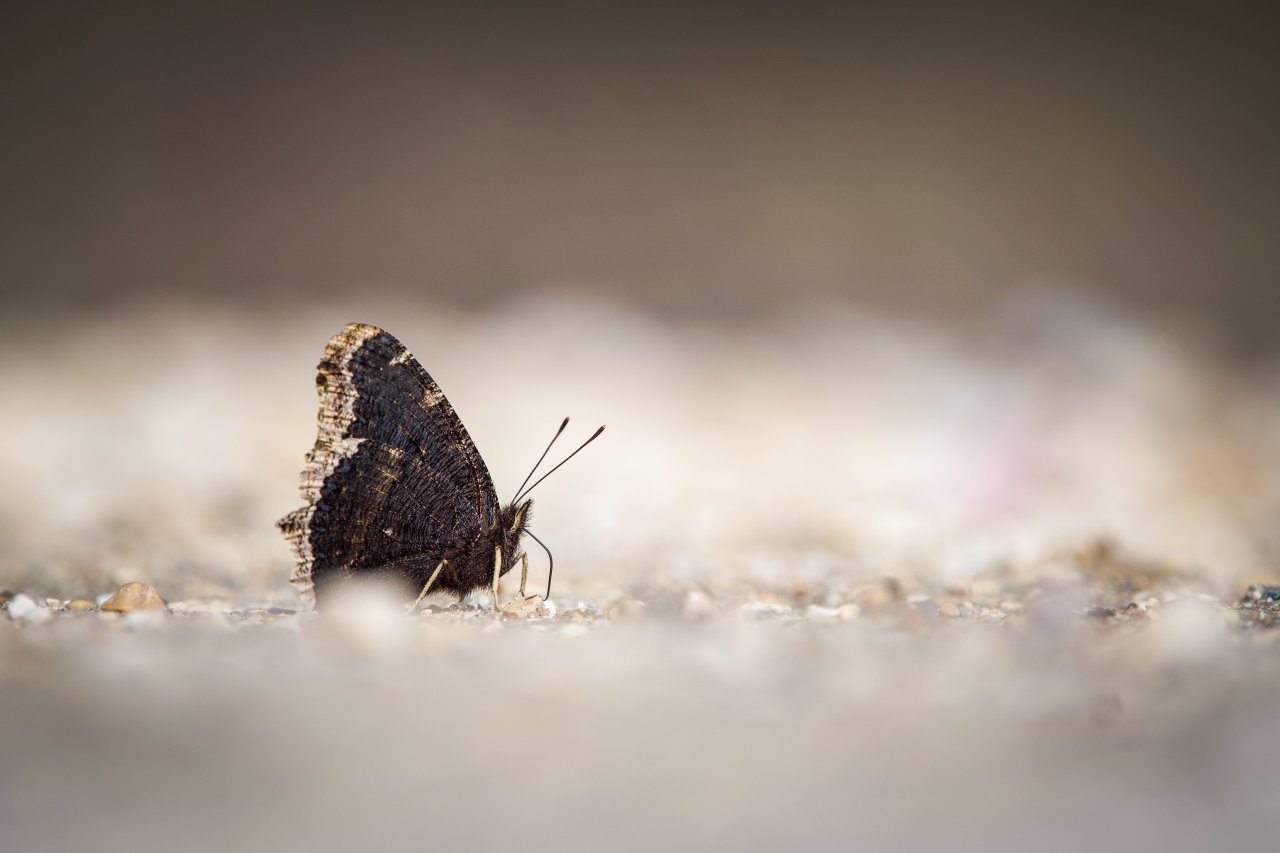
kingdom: Animalia
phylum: Arthropoda
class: Insecta
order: Lepidoptera
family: Nymphalidae
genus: Nymphalis
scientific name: Nymphalis antiopa
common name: Mourning Cloak
